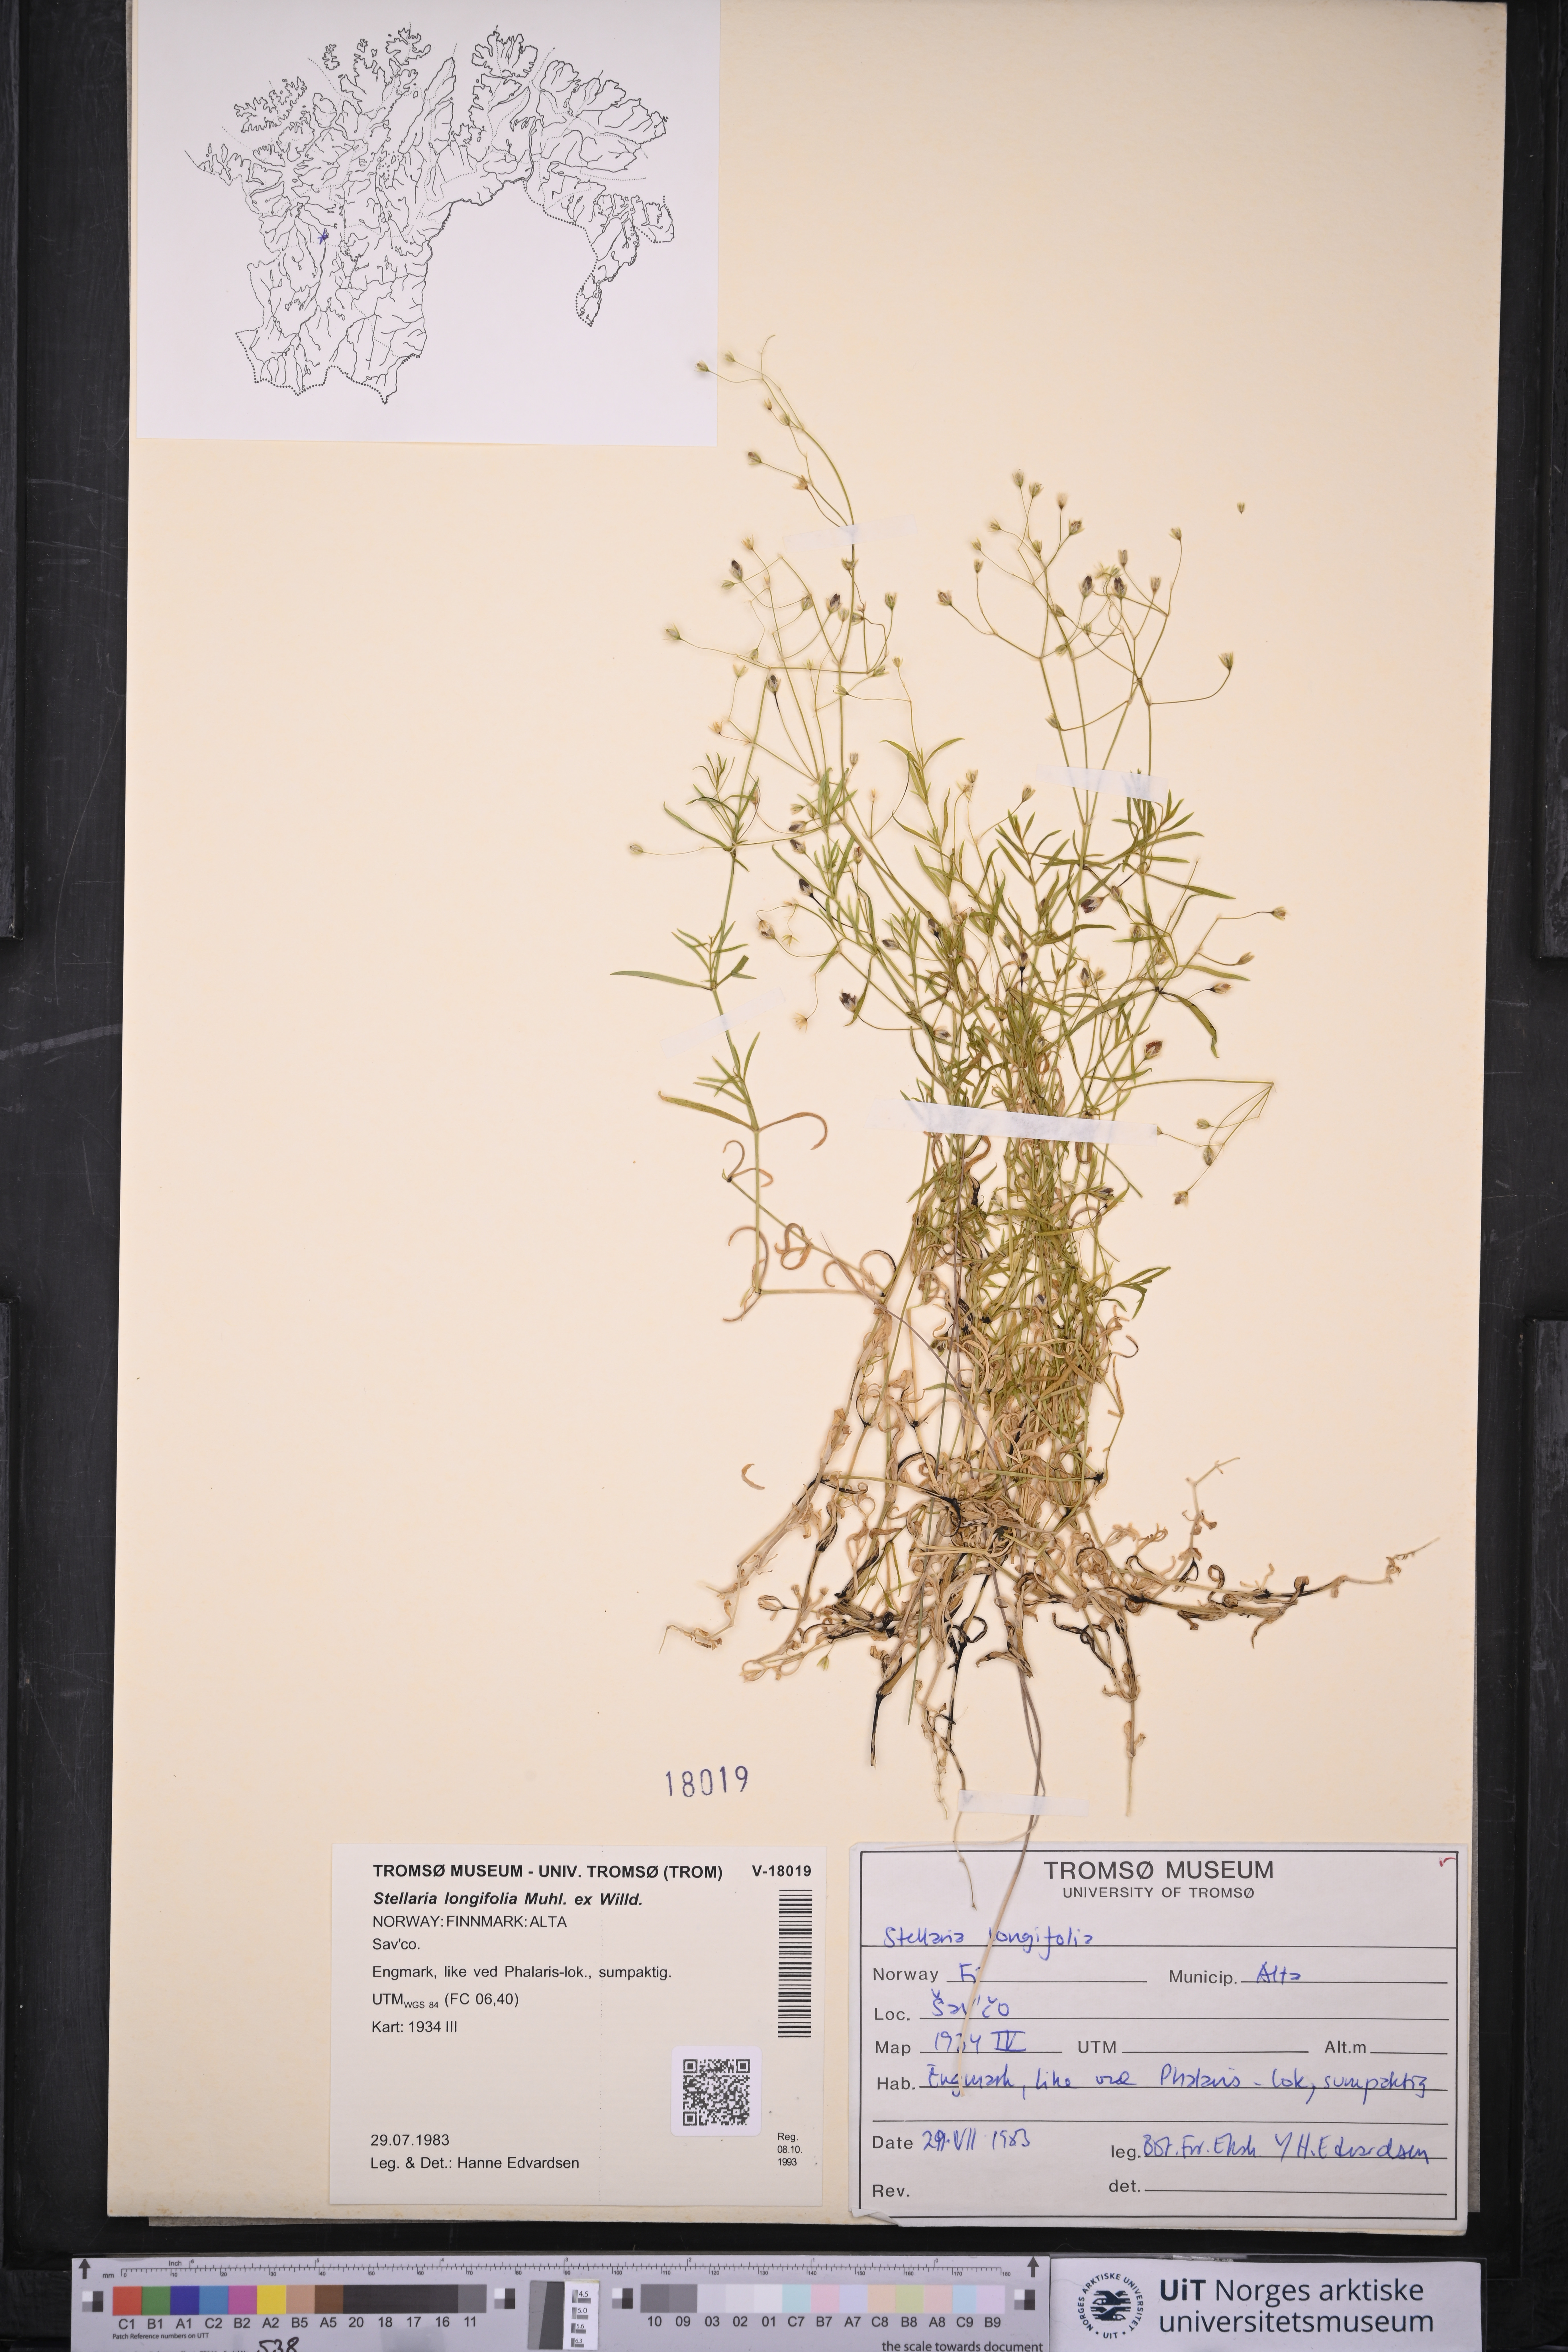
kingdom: Plantae
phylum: Tracheophyta
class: Magnoliopsida
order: Caryophyllales
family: Caryophyllaceae
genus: Stellaria
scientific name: Stellaria longifolia
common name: Long-leaved chickweed
